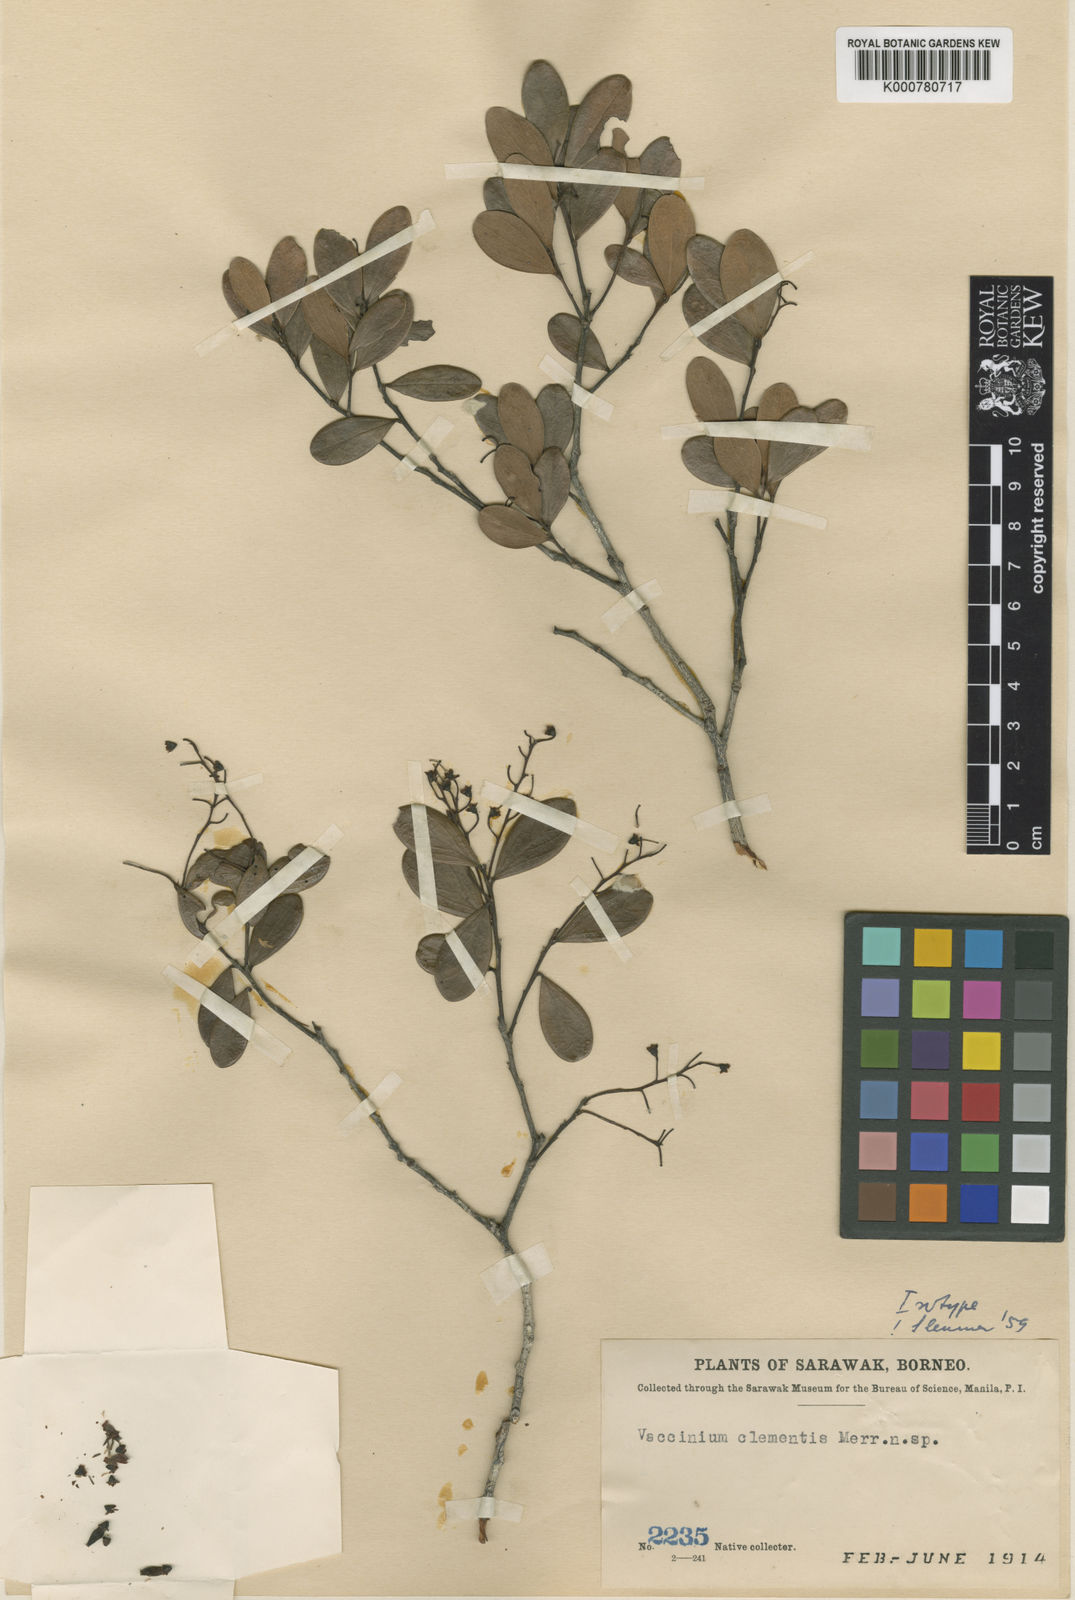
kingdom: Plantae
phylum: Tracheophyta
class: Magnoliopsida
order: Ericales
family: Ericaceae
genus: Vaccinium
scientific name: Vaccinium clementis
